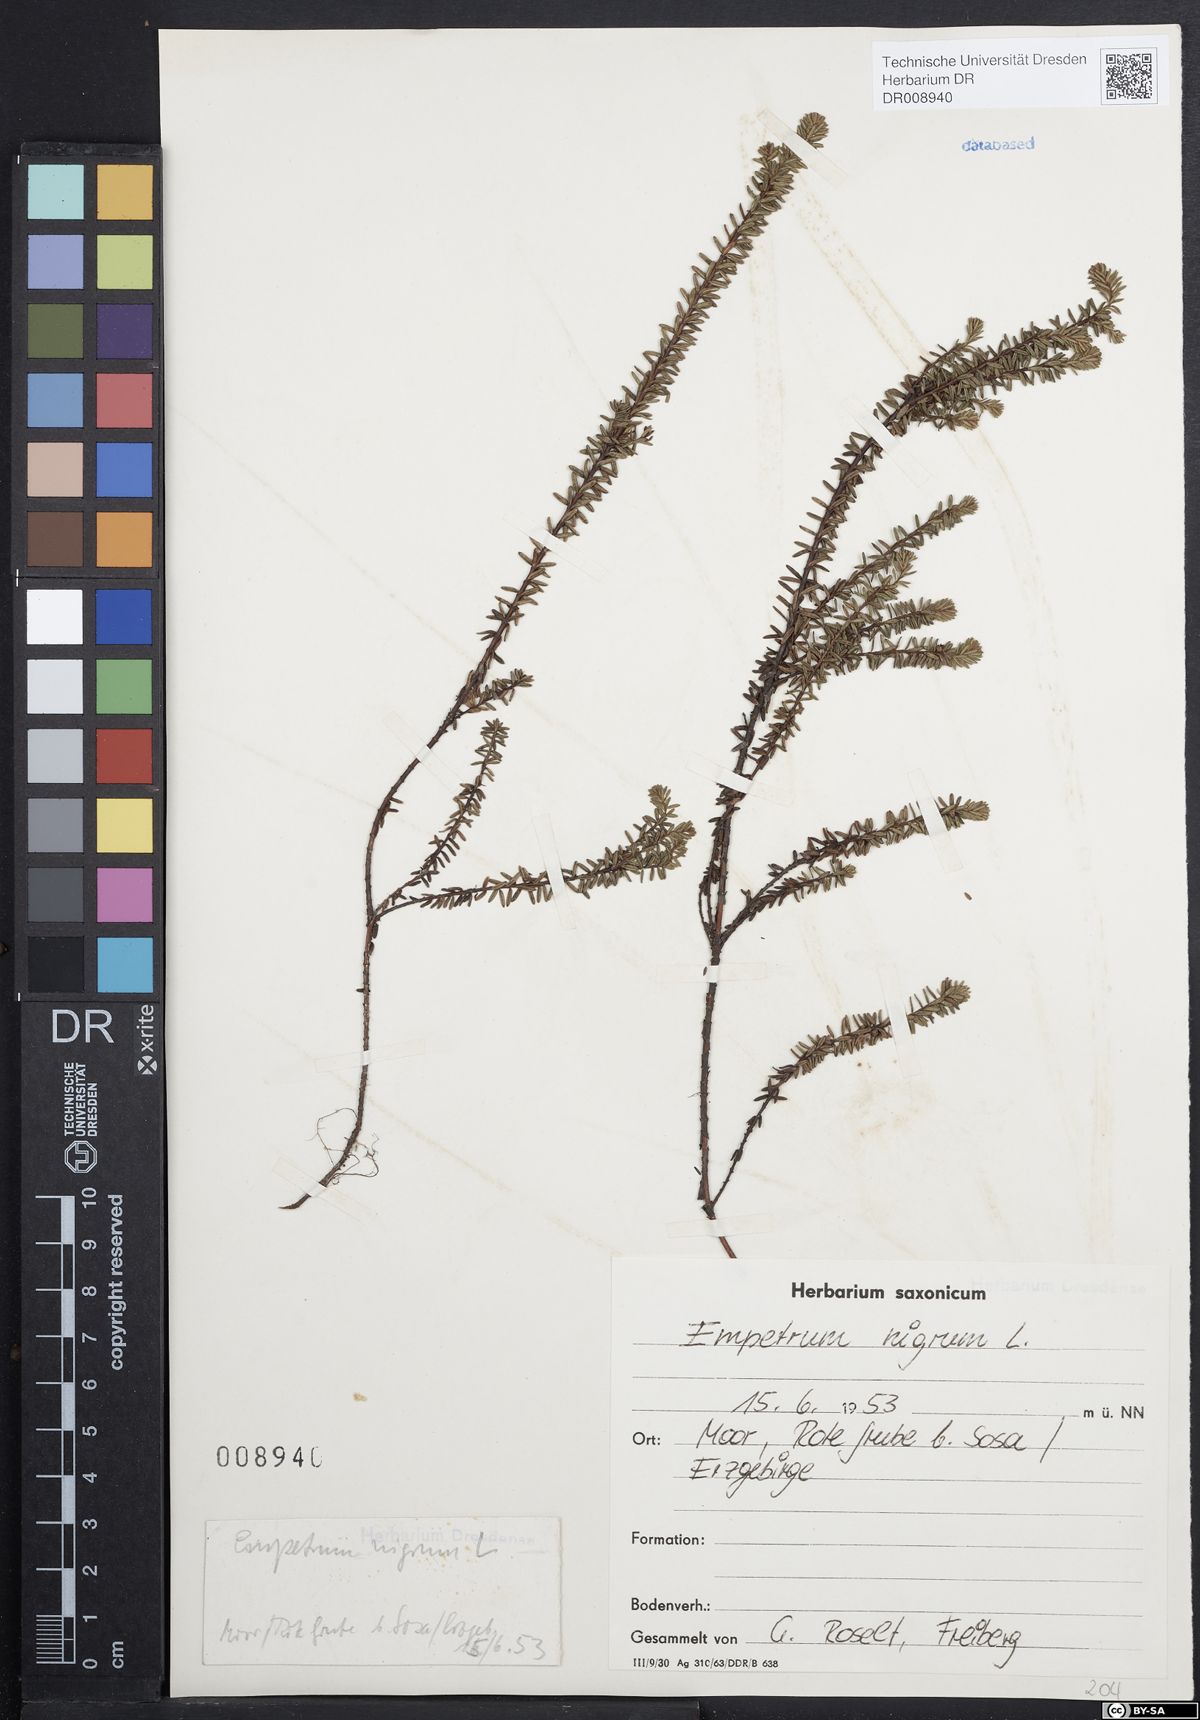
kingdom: Plantae
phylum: Tracheophyta
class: Magnoliopsida
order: Ericales
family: Ericaceae
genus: Empetrum
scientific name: Empetrum nigrum
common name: Black crowberry
